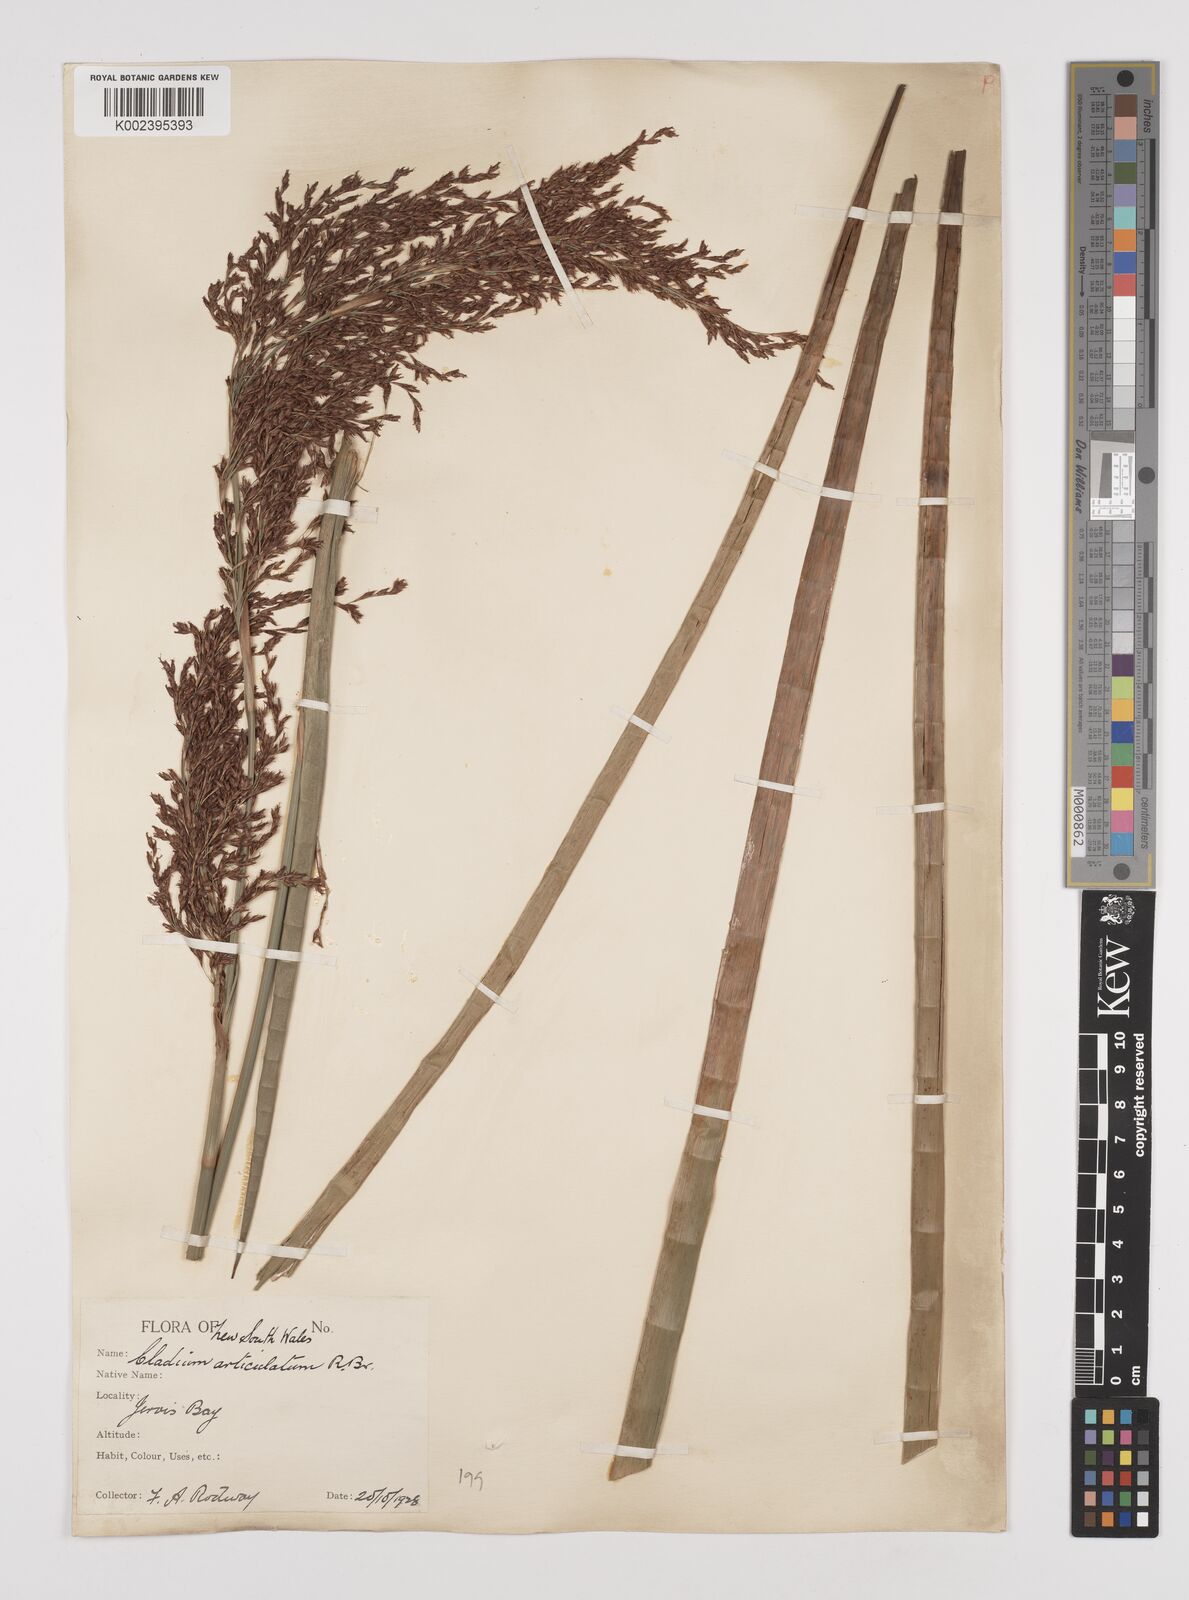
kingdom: Plantae
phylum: Tracheophyta
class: Liliopsida
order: Poales
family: Cyperaceae
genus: Machaerina
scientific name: Machaerina articulata
